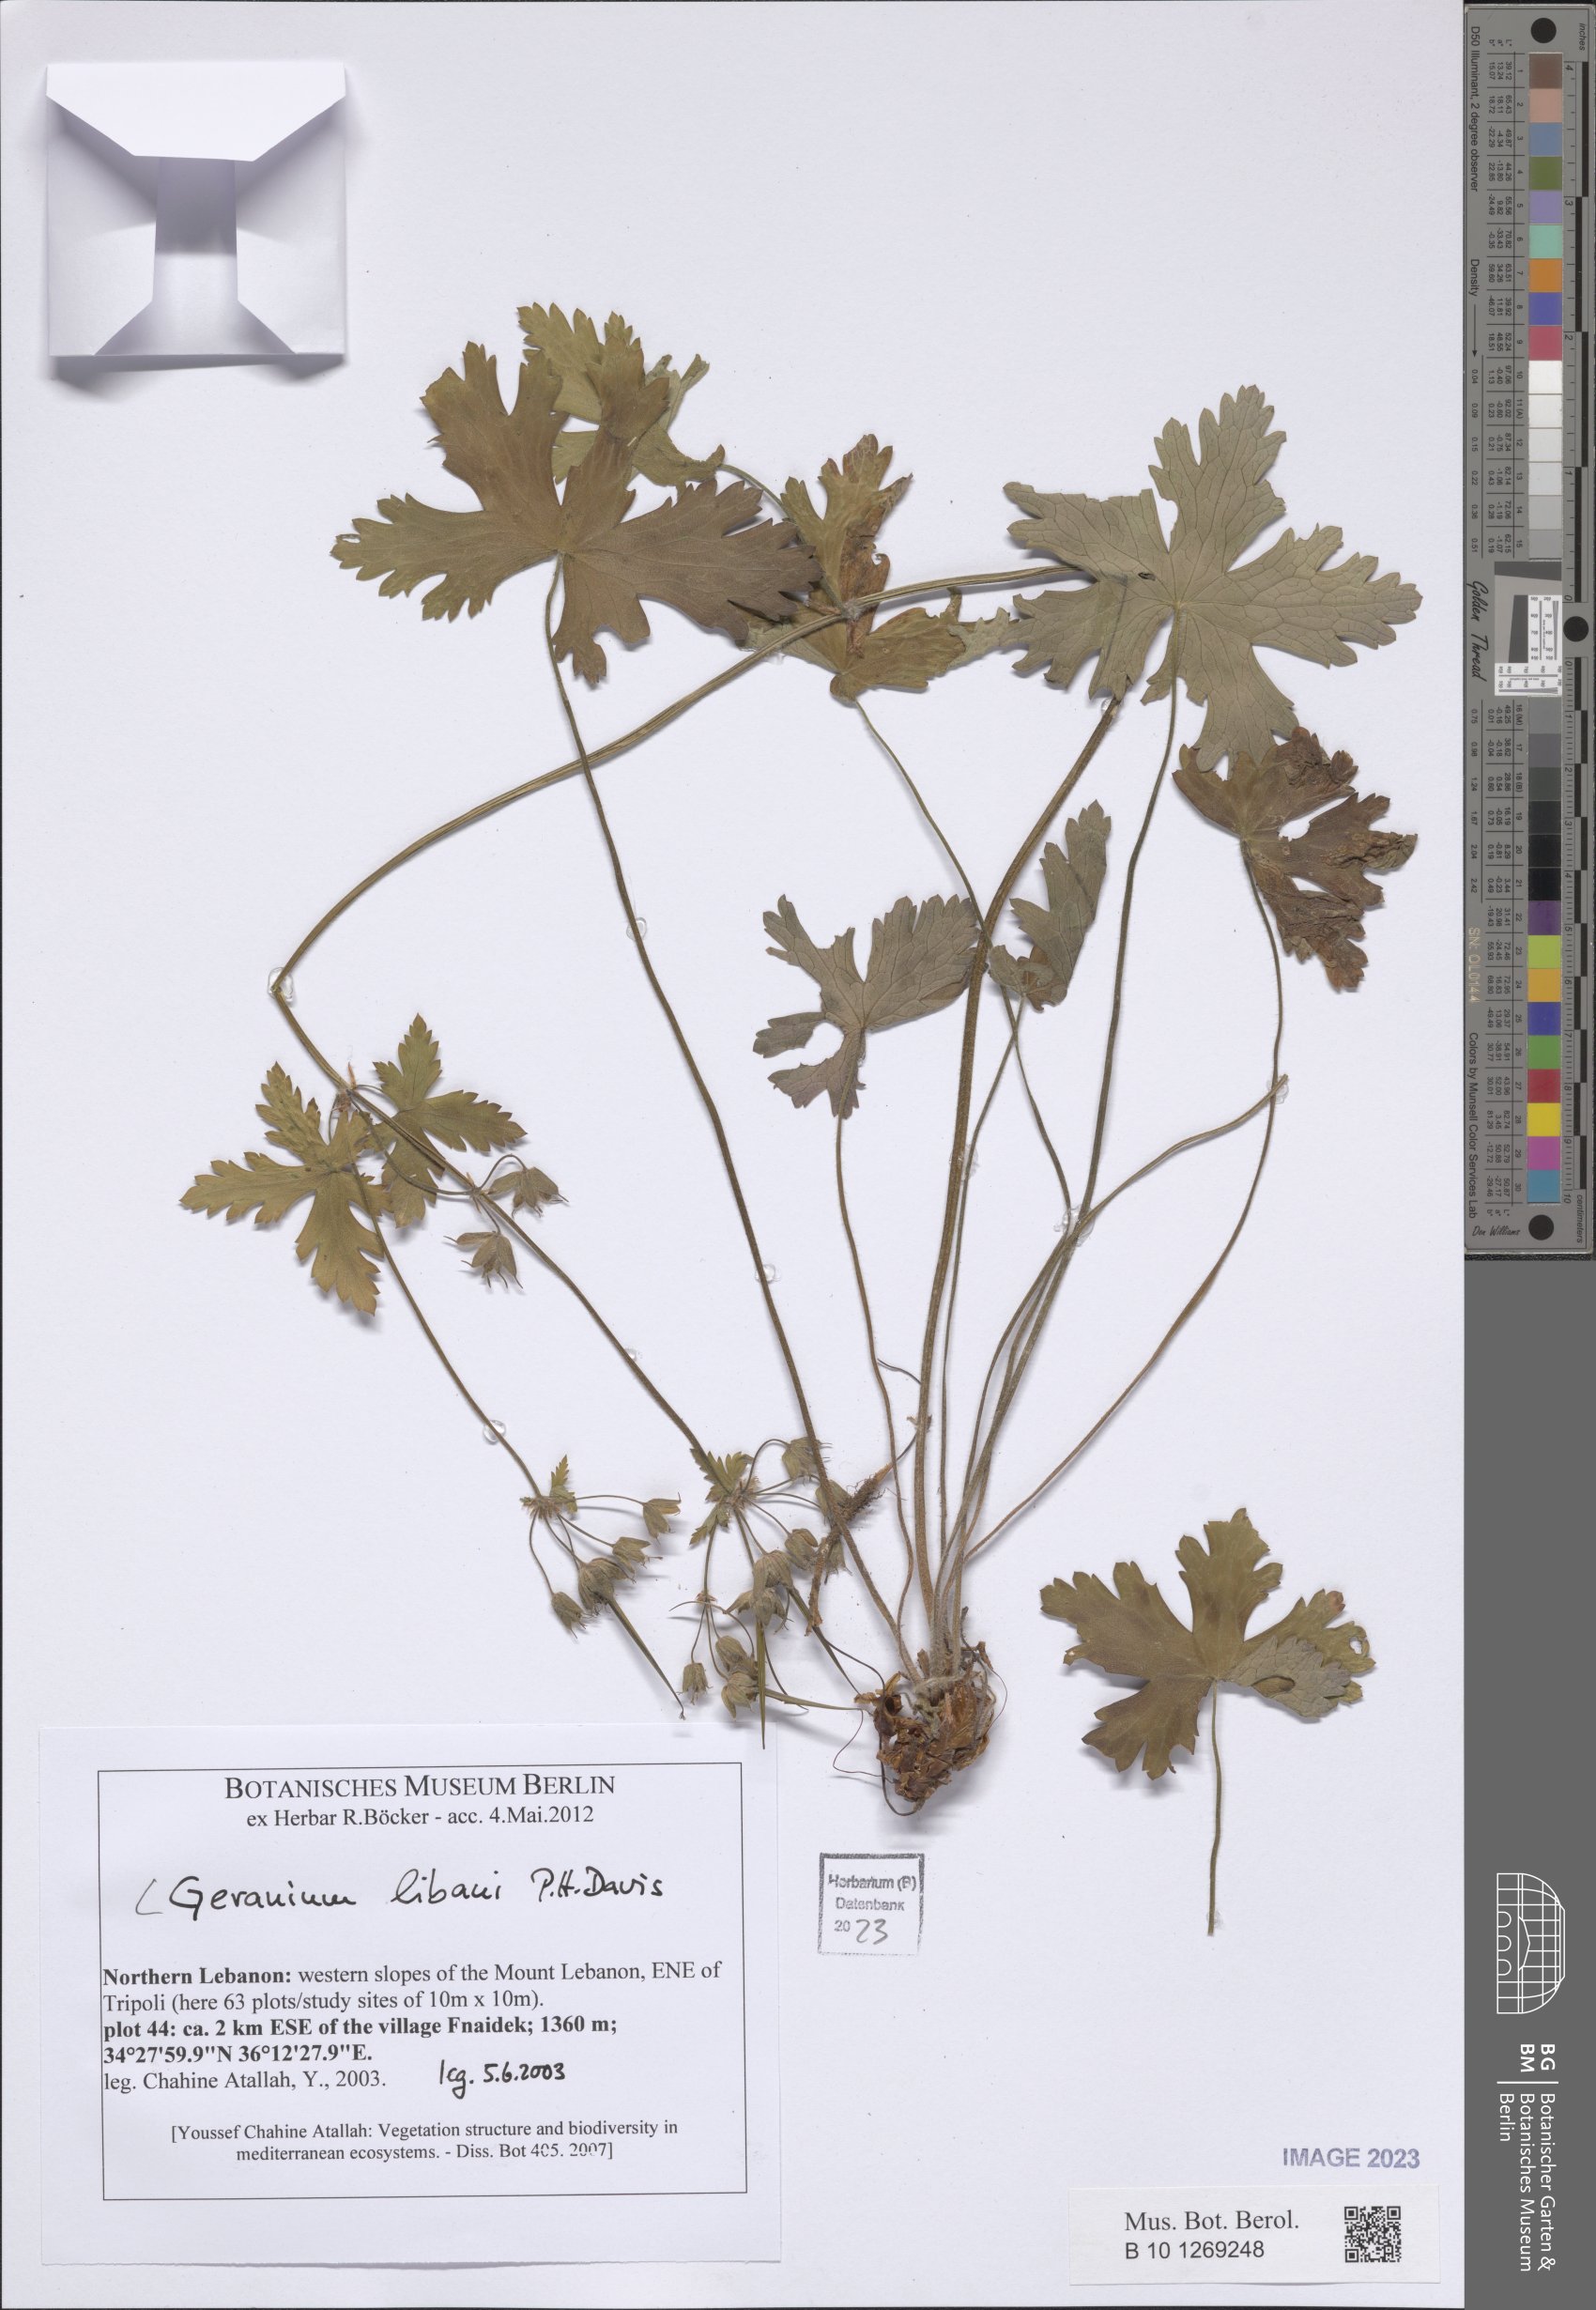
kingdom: Plantae
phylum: Tracheophyta
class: Magnoliopsida
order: Geraniales
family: Geraniaceae
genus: Geranium
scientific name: Geranium libani
